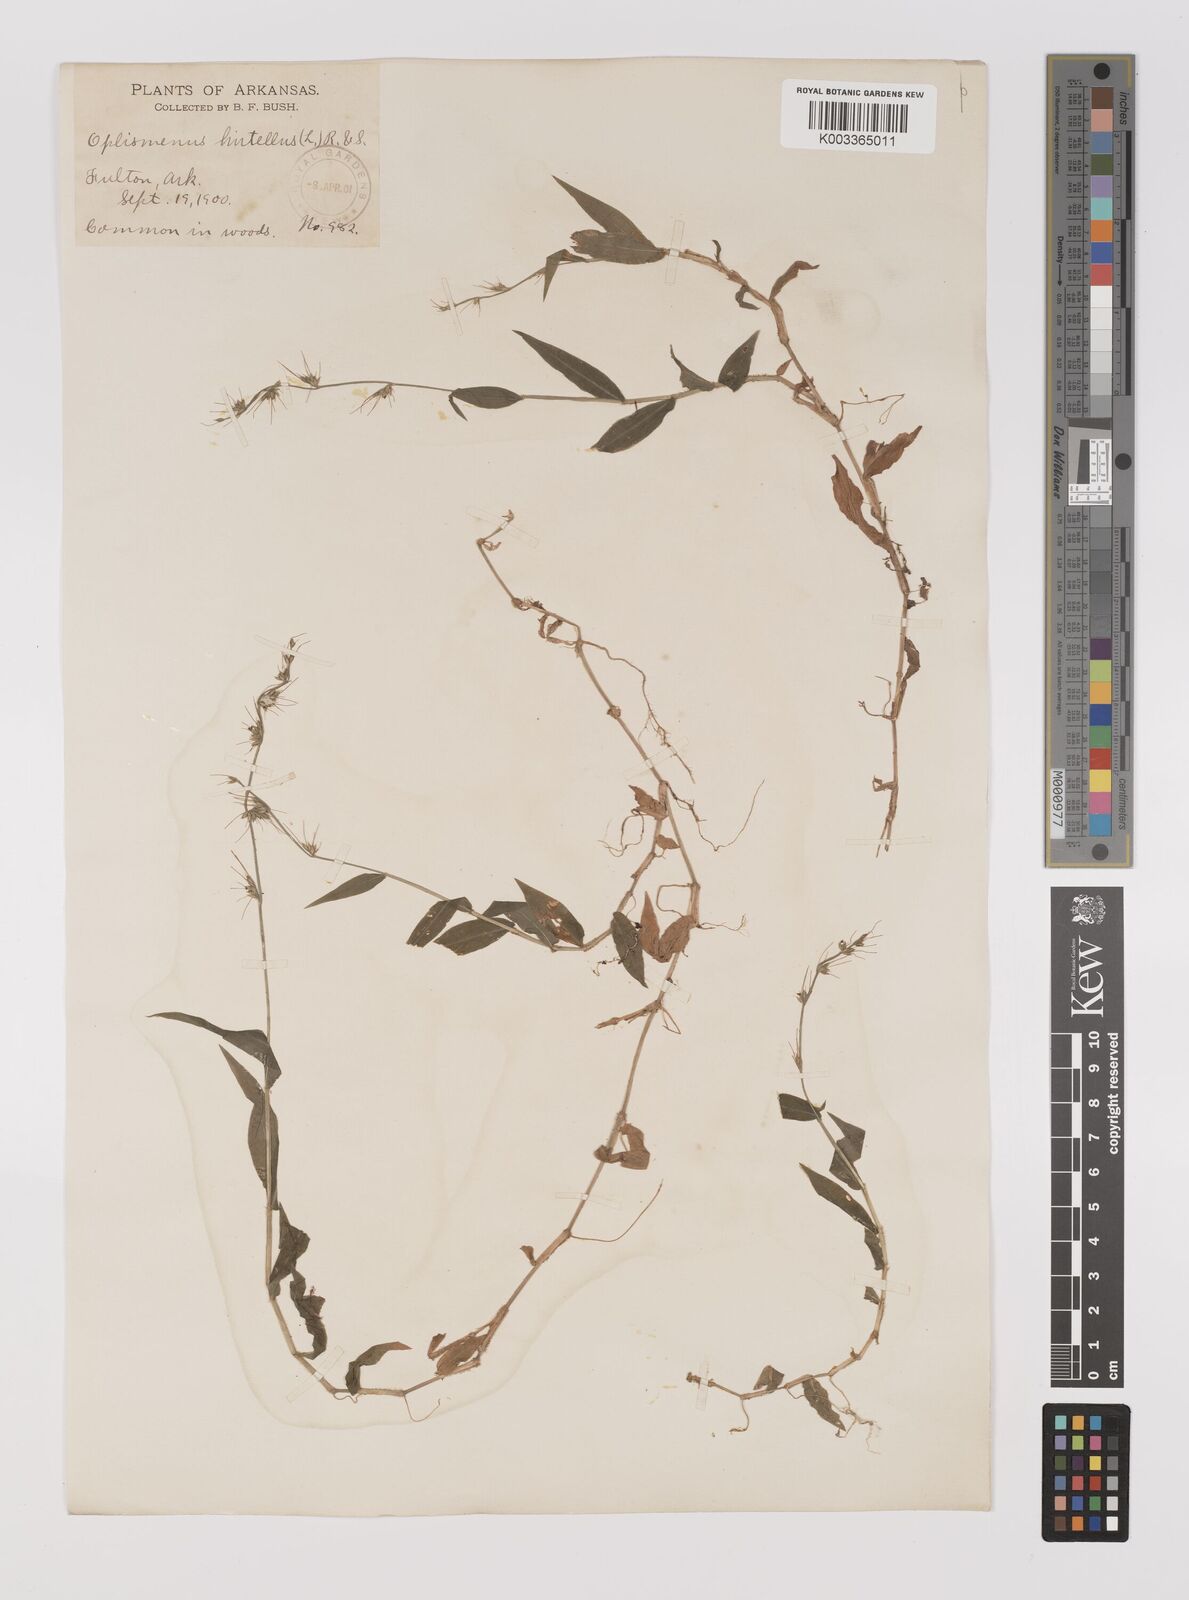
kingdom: Plantae
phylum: Tracheophyta
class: Liliopsida
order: Poales
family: Poaceae
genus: Oplismenus
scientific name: Oplismenus undulatifolius
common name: Wavyleaf basketgrass
